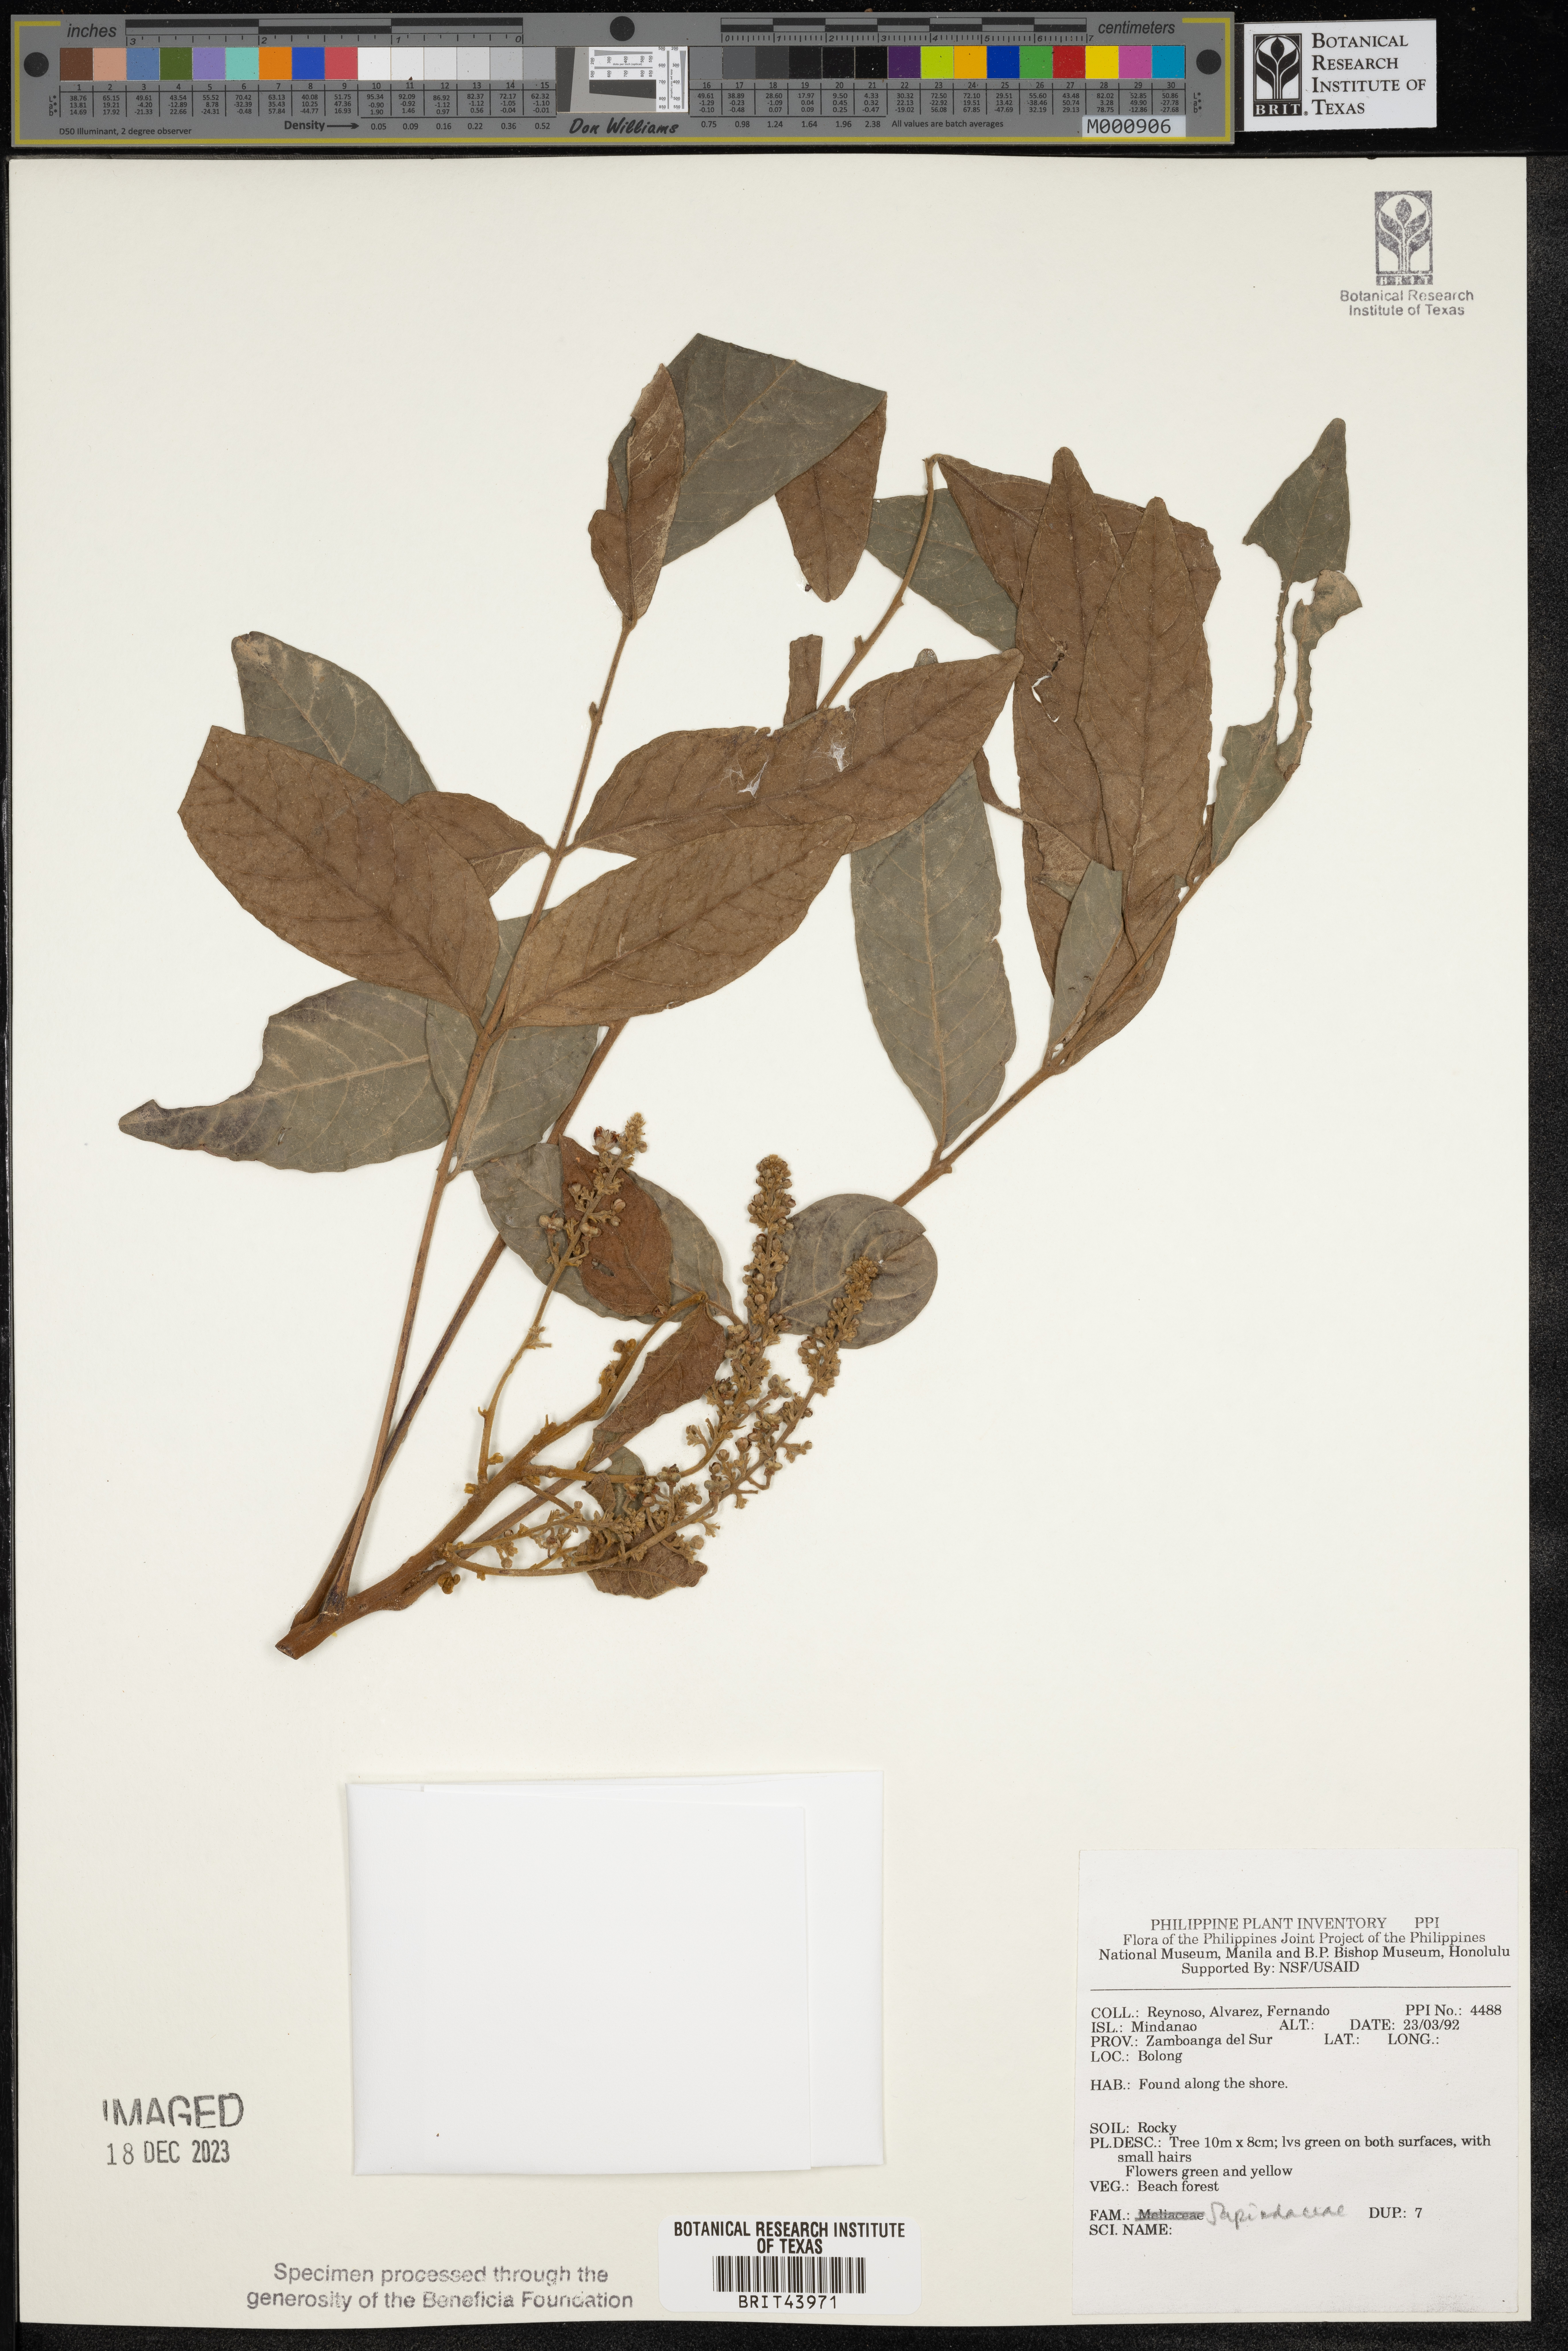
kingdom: Plantae
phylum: Tracheophyta
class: Magnoliopsida
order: Sapindales
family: Sapindaceae
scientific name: Sapindaceae
